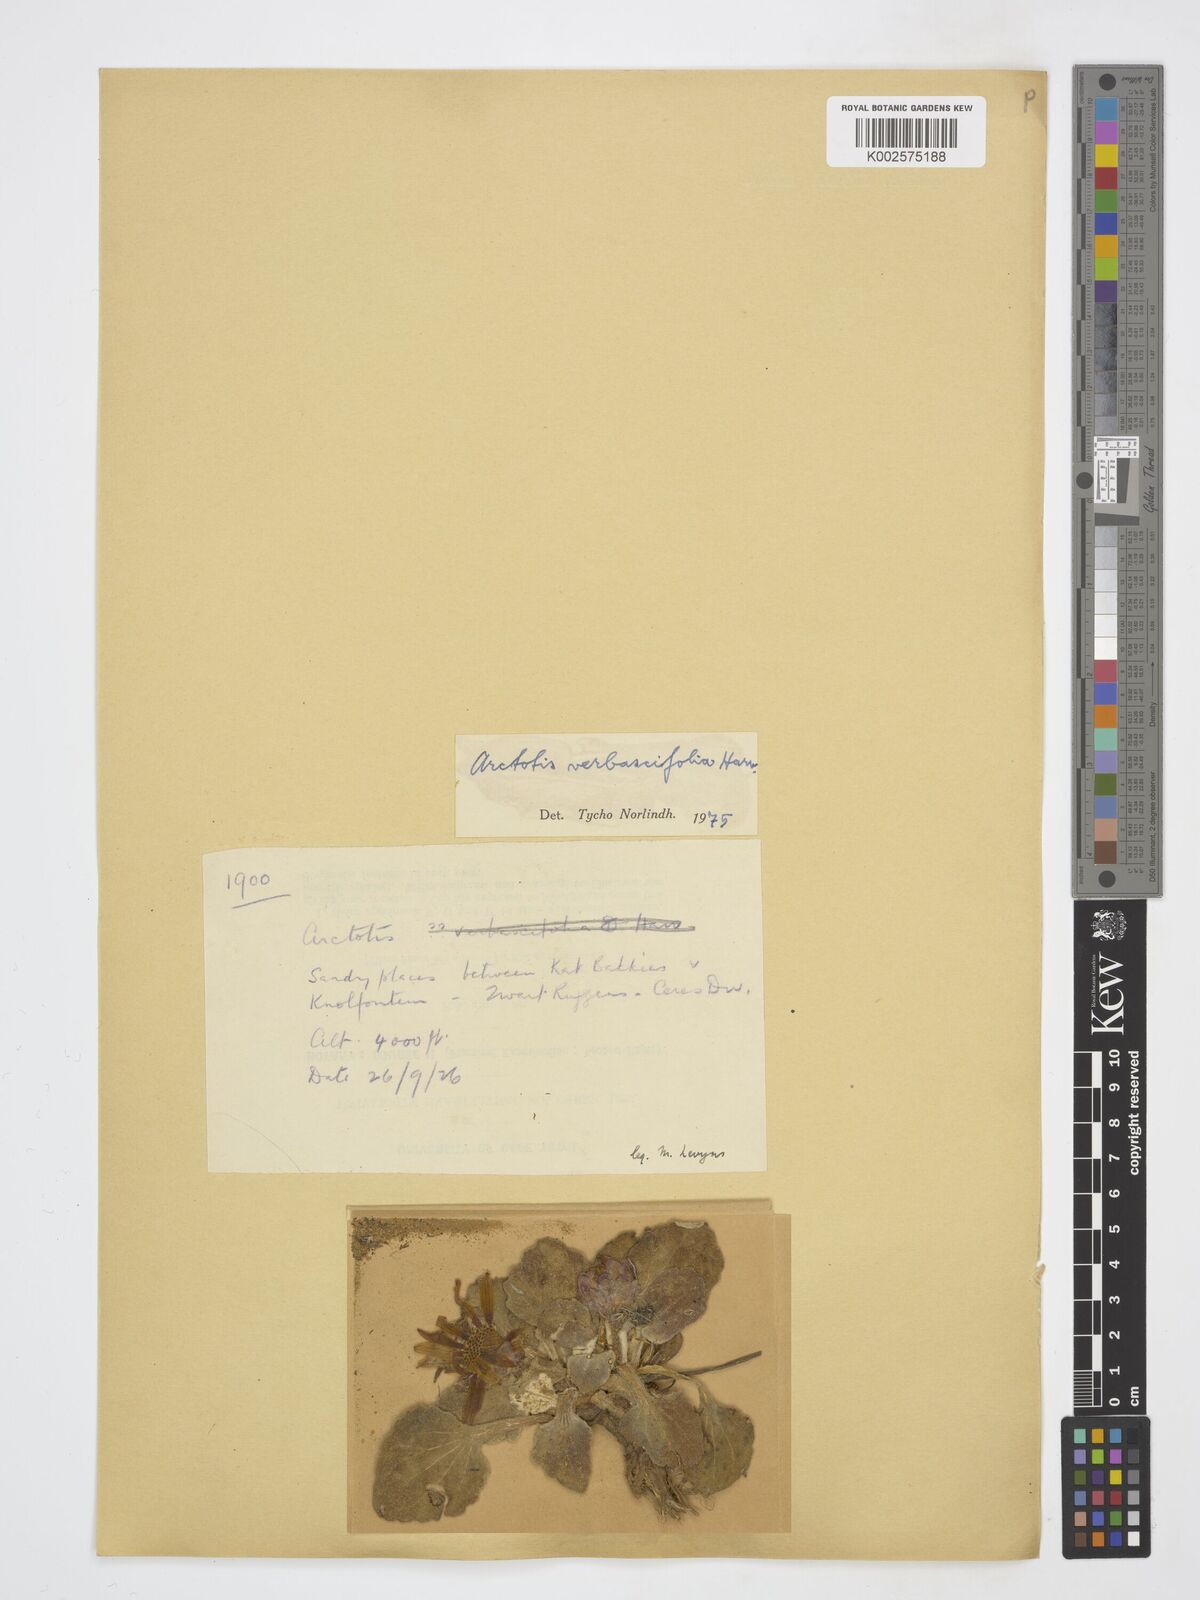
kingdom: Plantae
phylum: Tracheophyta
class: Magnoliopsida
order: Asterales
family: Asteraceae
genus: Arctotis
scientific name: Arctotis verbascifolia
